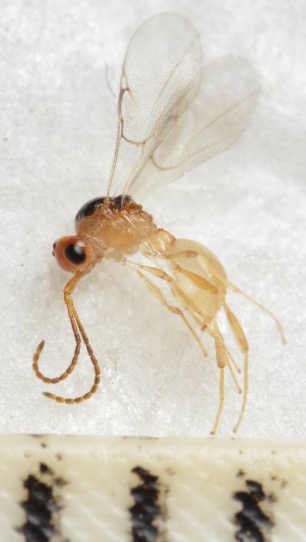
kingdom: Animalia
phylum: Arthropoda
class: Insecta
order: Hymenoptera
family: Diapriidae
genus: Ismarus
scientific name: Ismarus dorsiger
